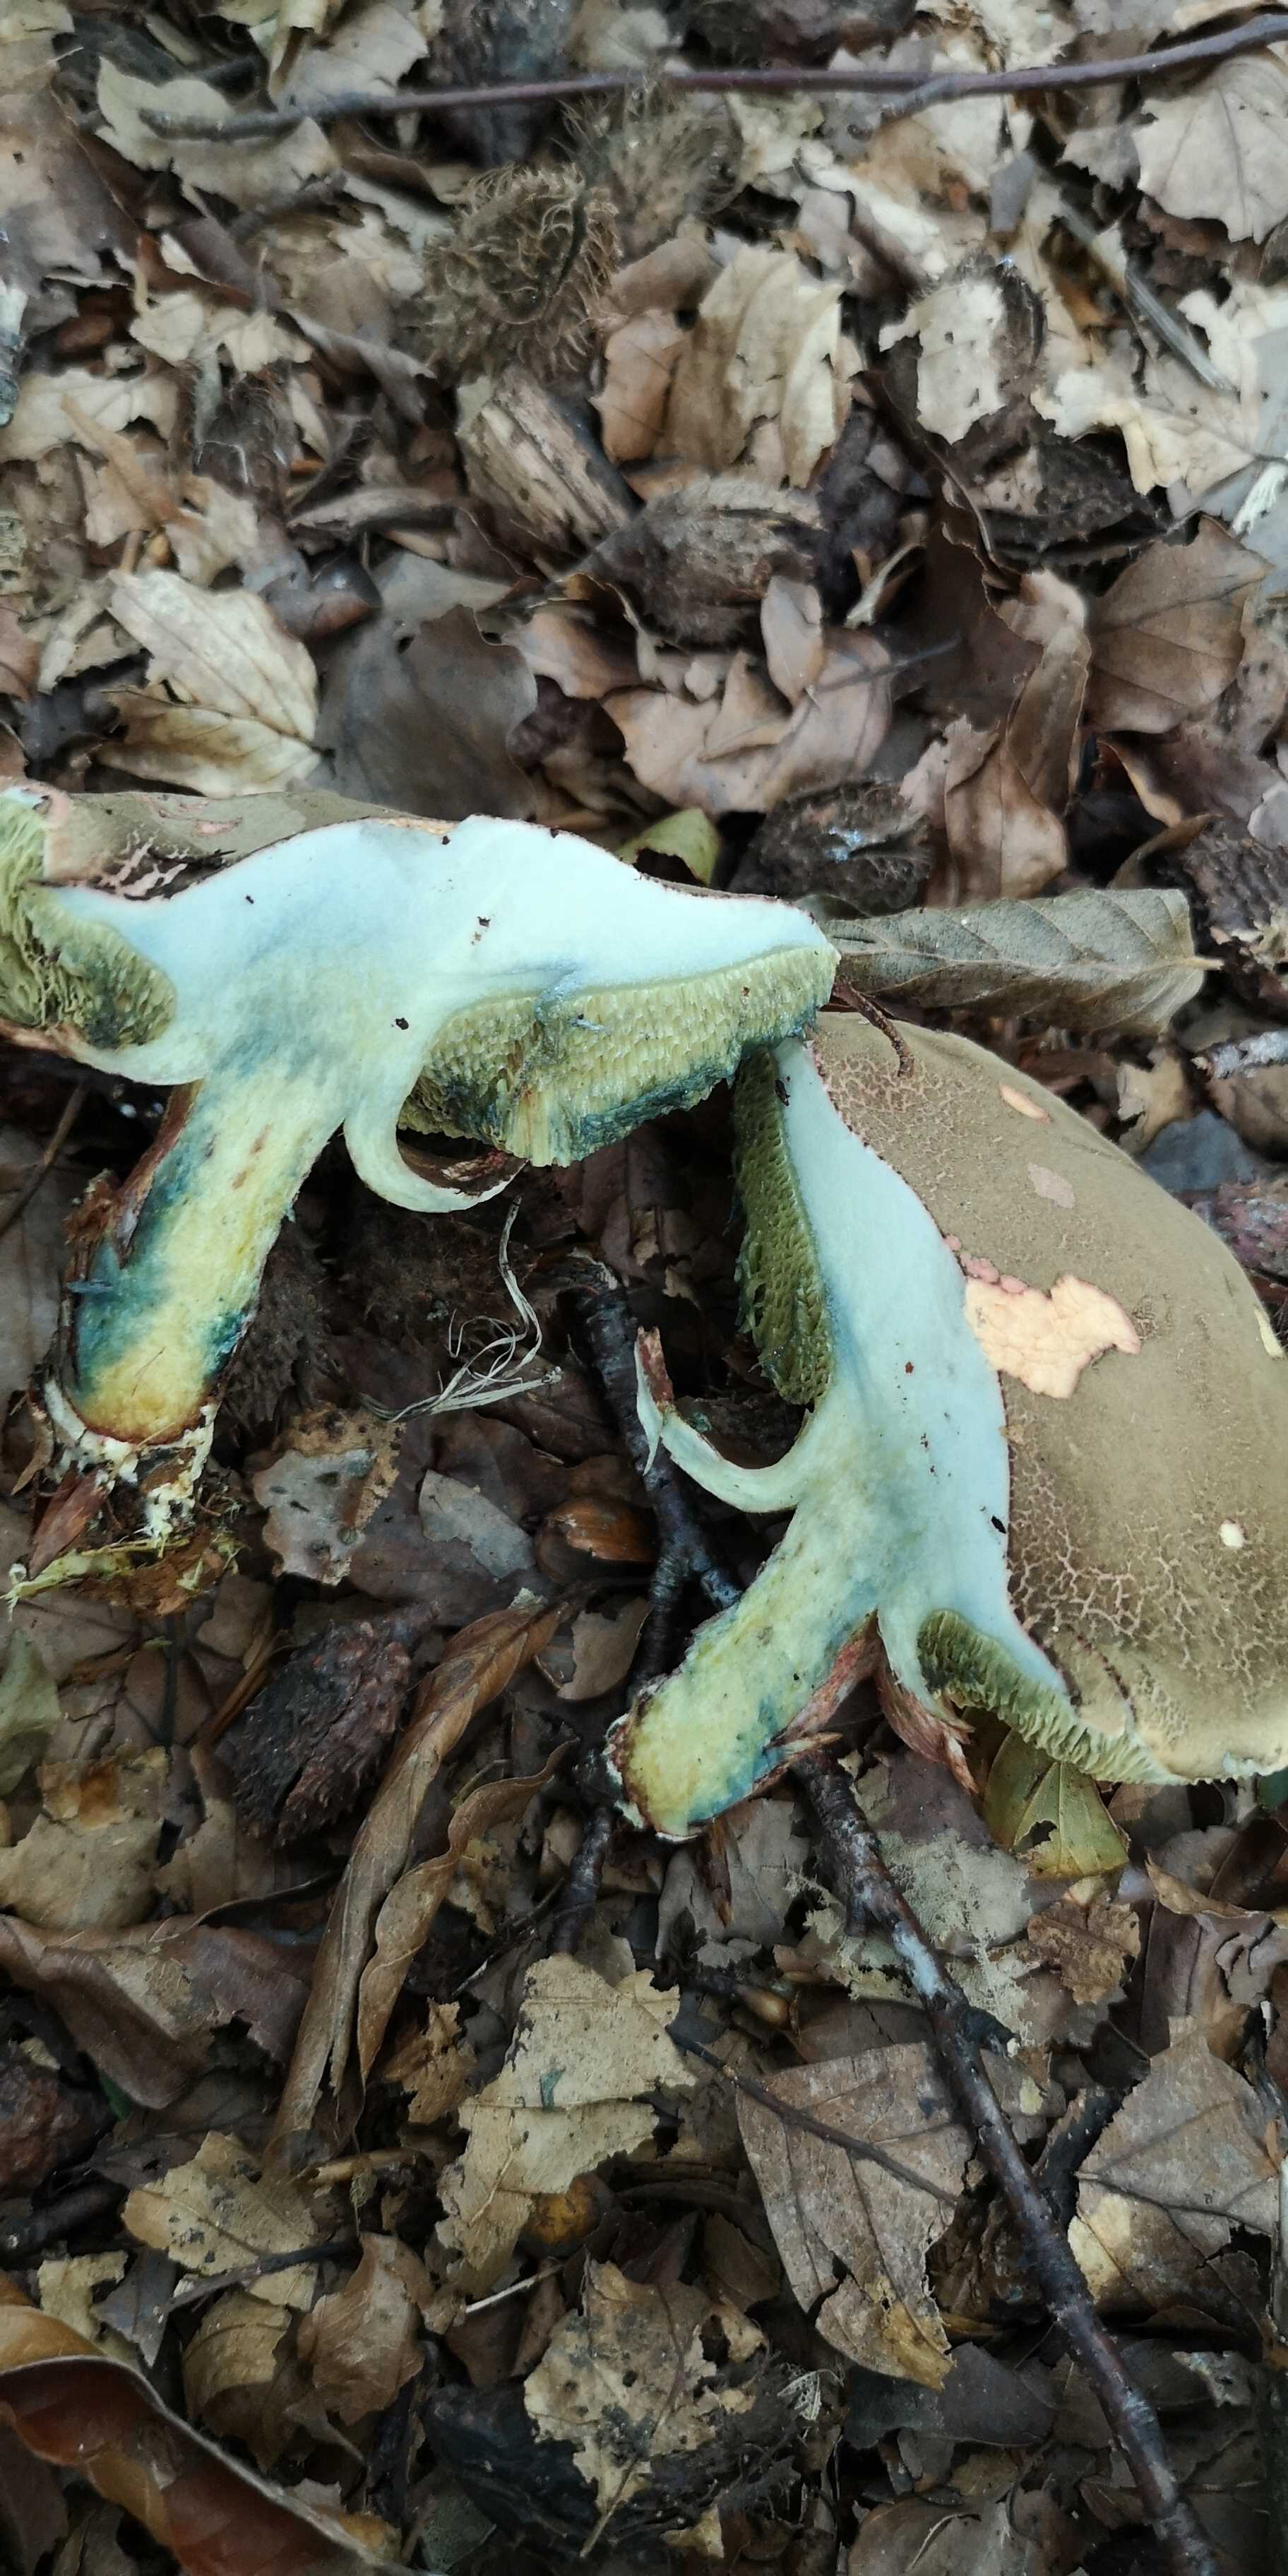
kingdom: Fungi
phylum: Basidiomycota
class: Agaricomycetes
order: Boletales
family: Boletaceae
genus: Xerocomellus
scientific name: Xerocomellus cisalpinus
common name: finsprukken rørhat
